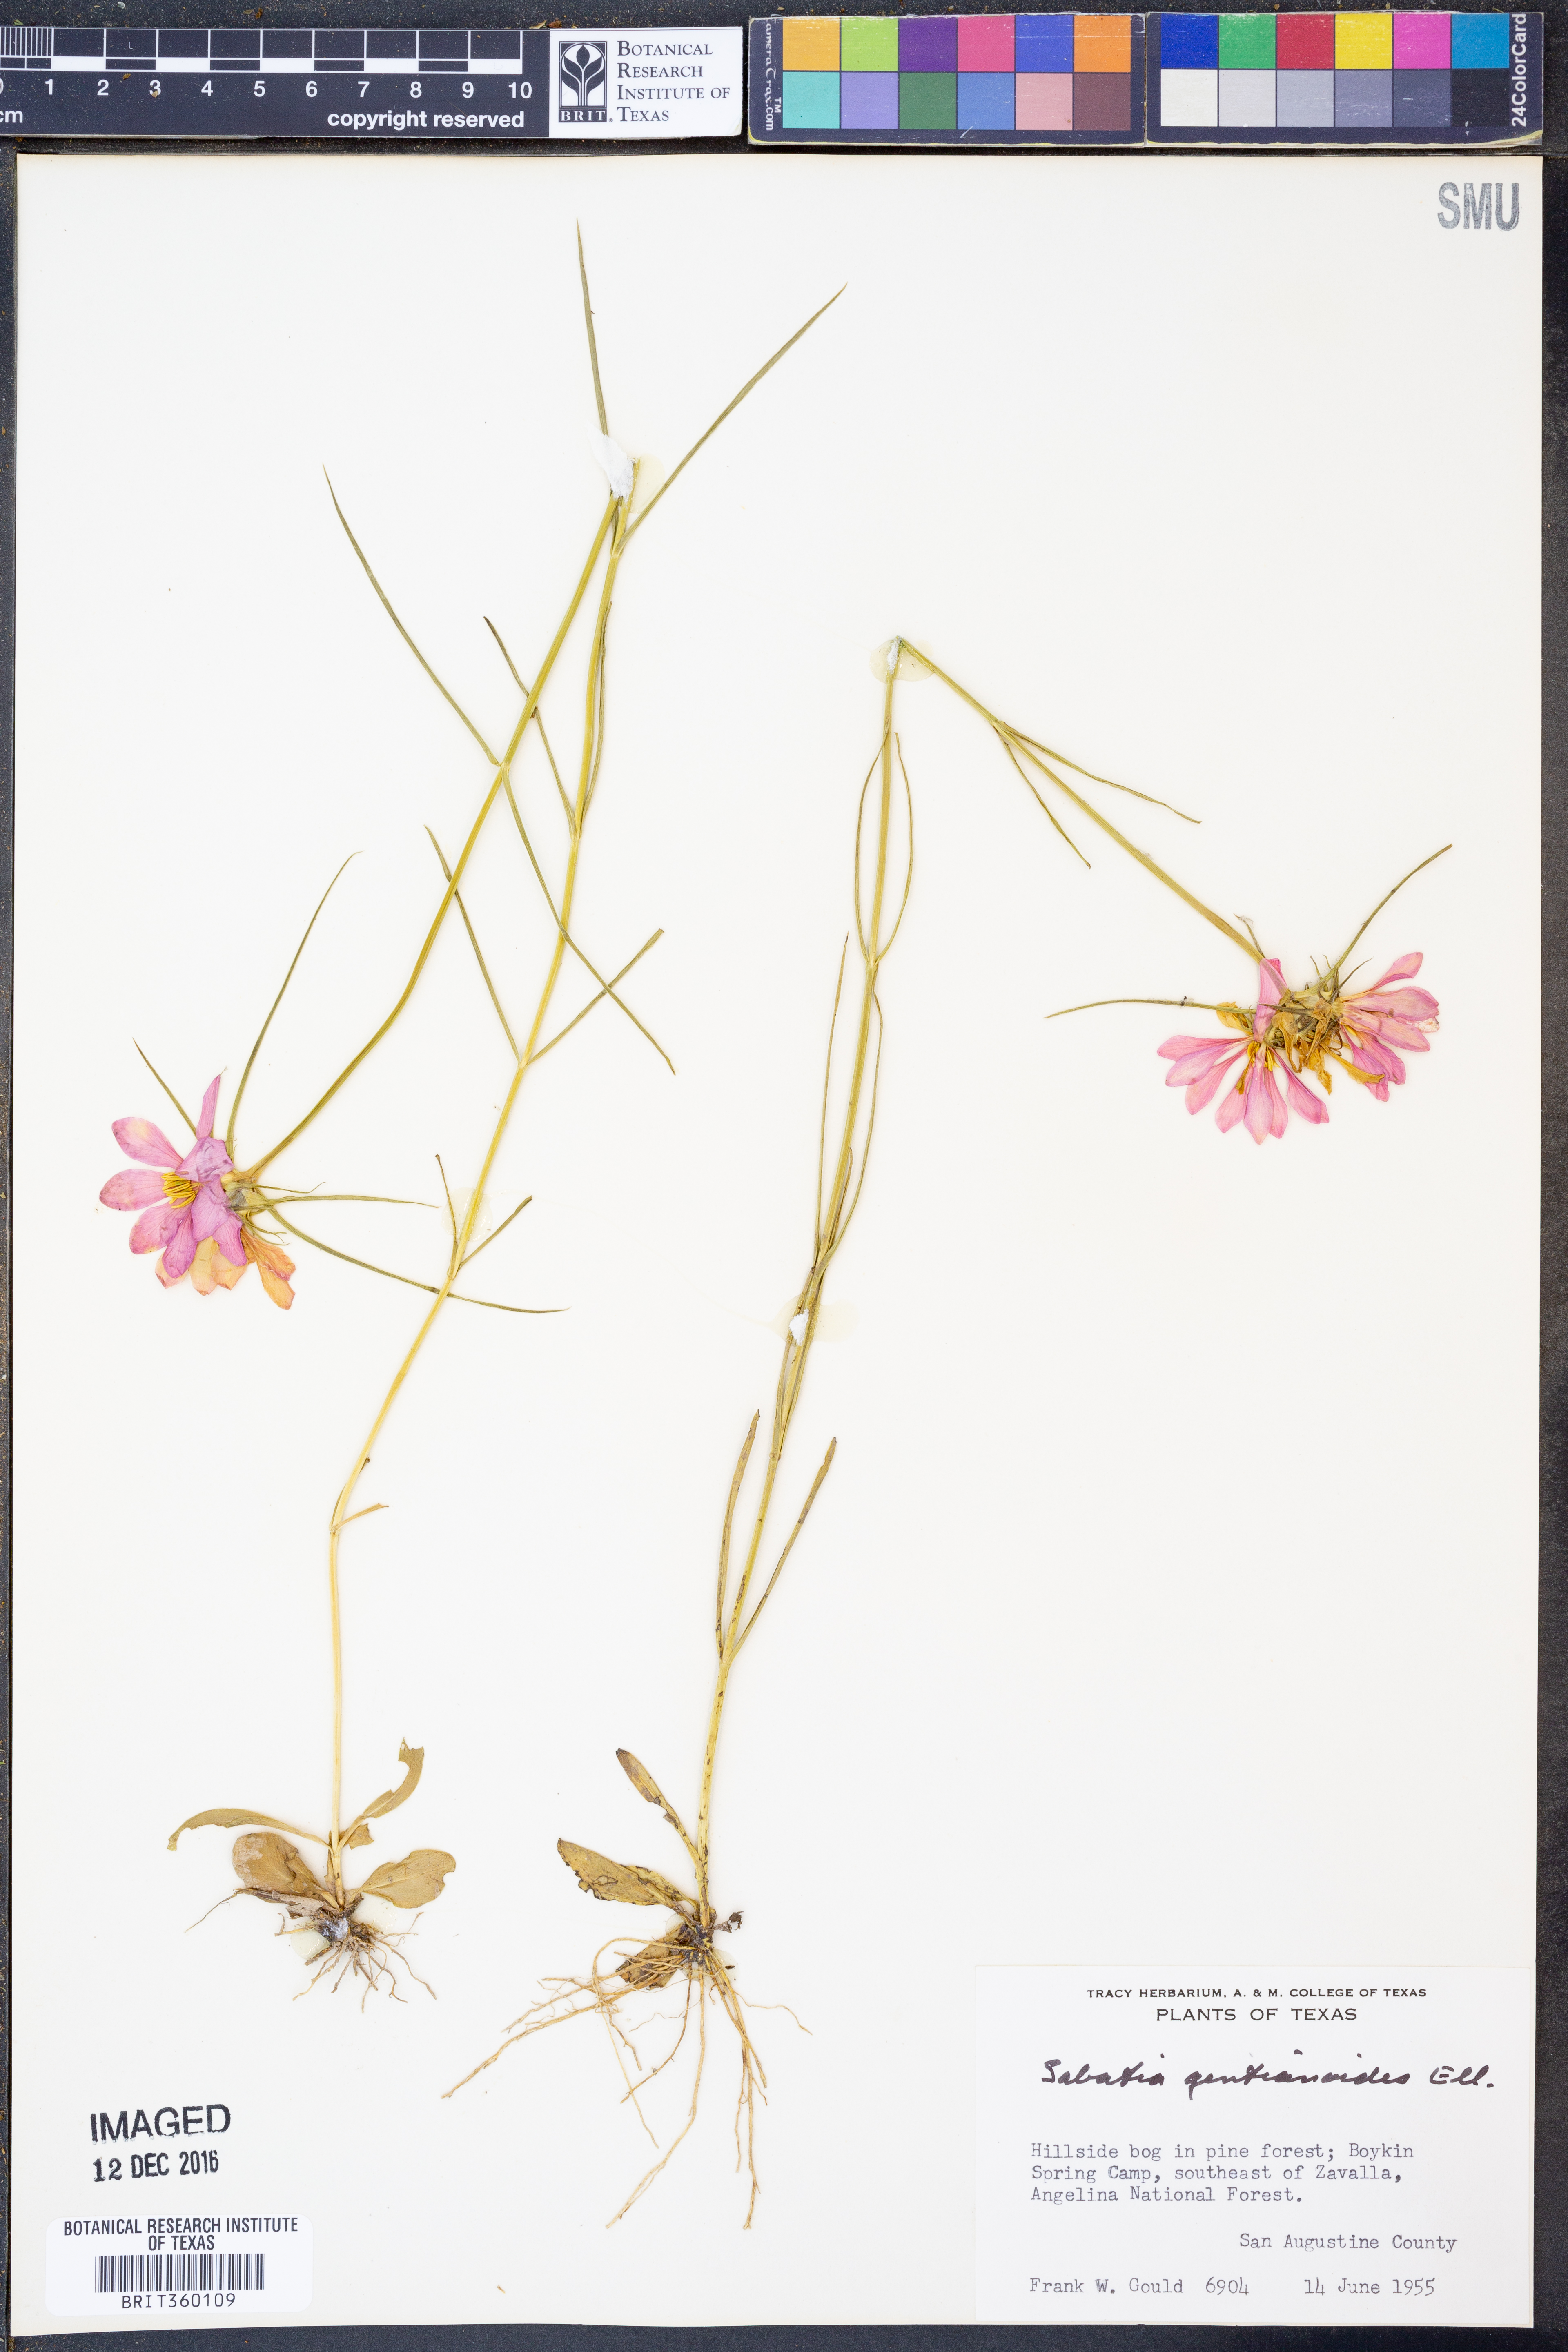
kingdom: Plantae
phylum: Tracheophyta
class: Magnoliopsida
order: Gentianales
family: Gentianaceae
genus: Sabatia
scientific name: Sabatia gentianoides
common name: Pinewoods rose-gentian
